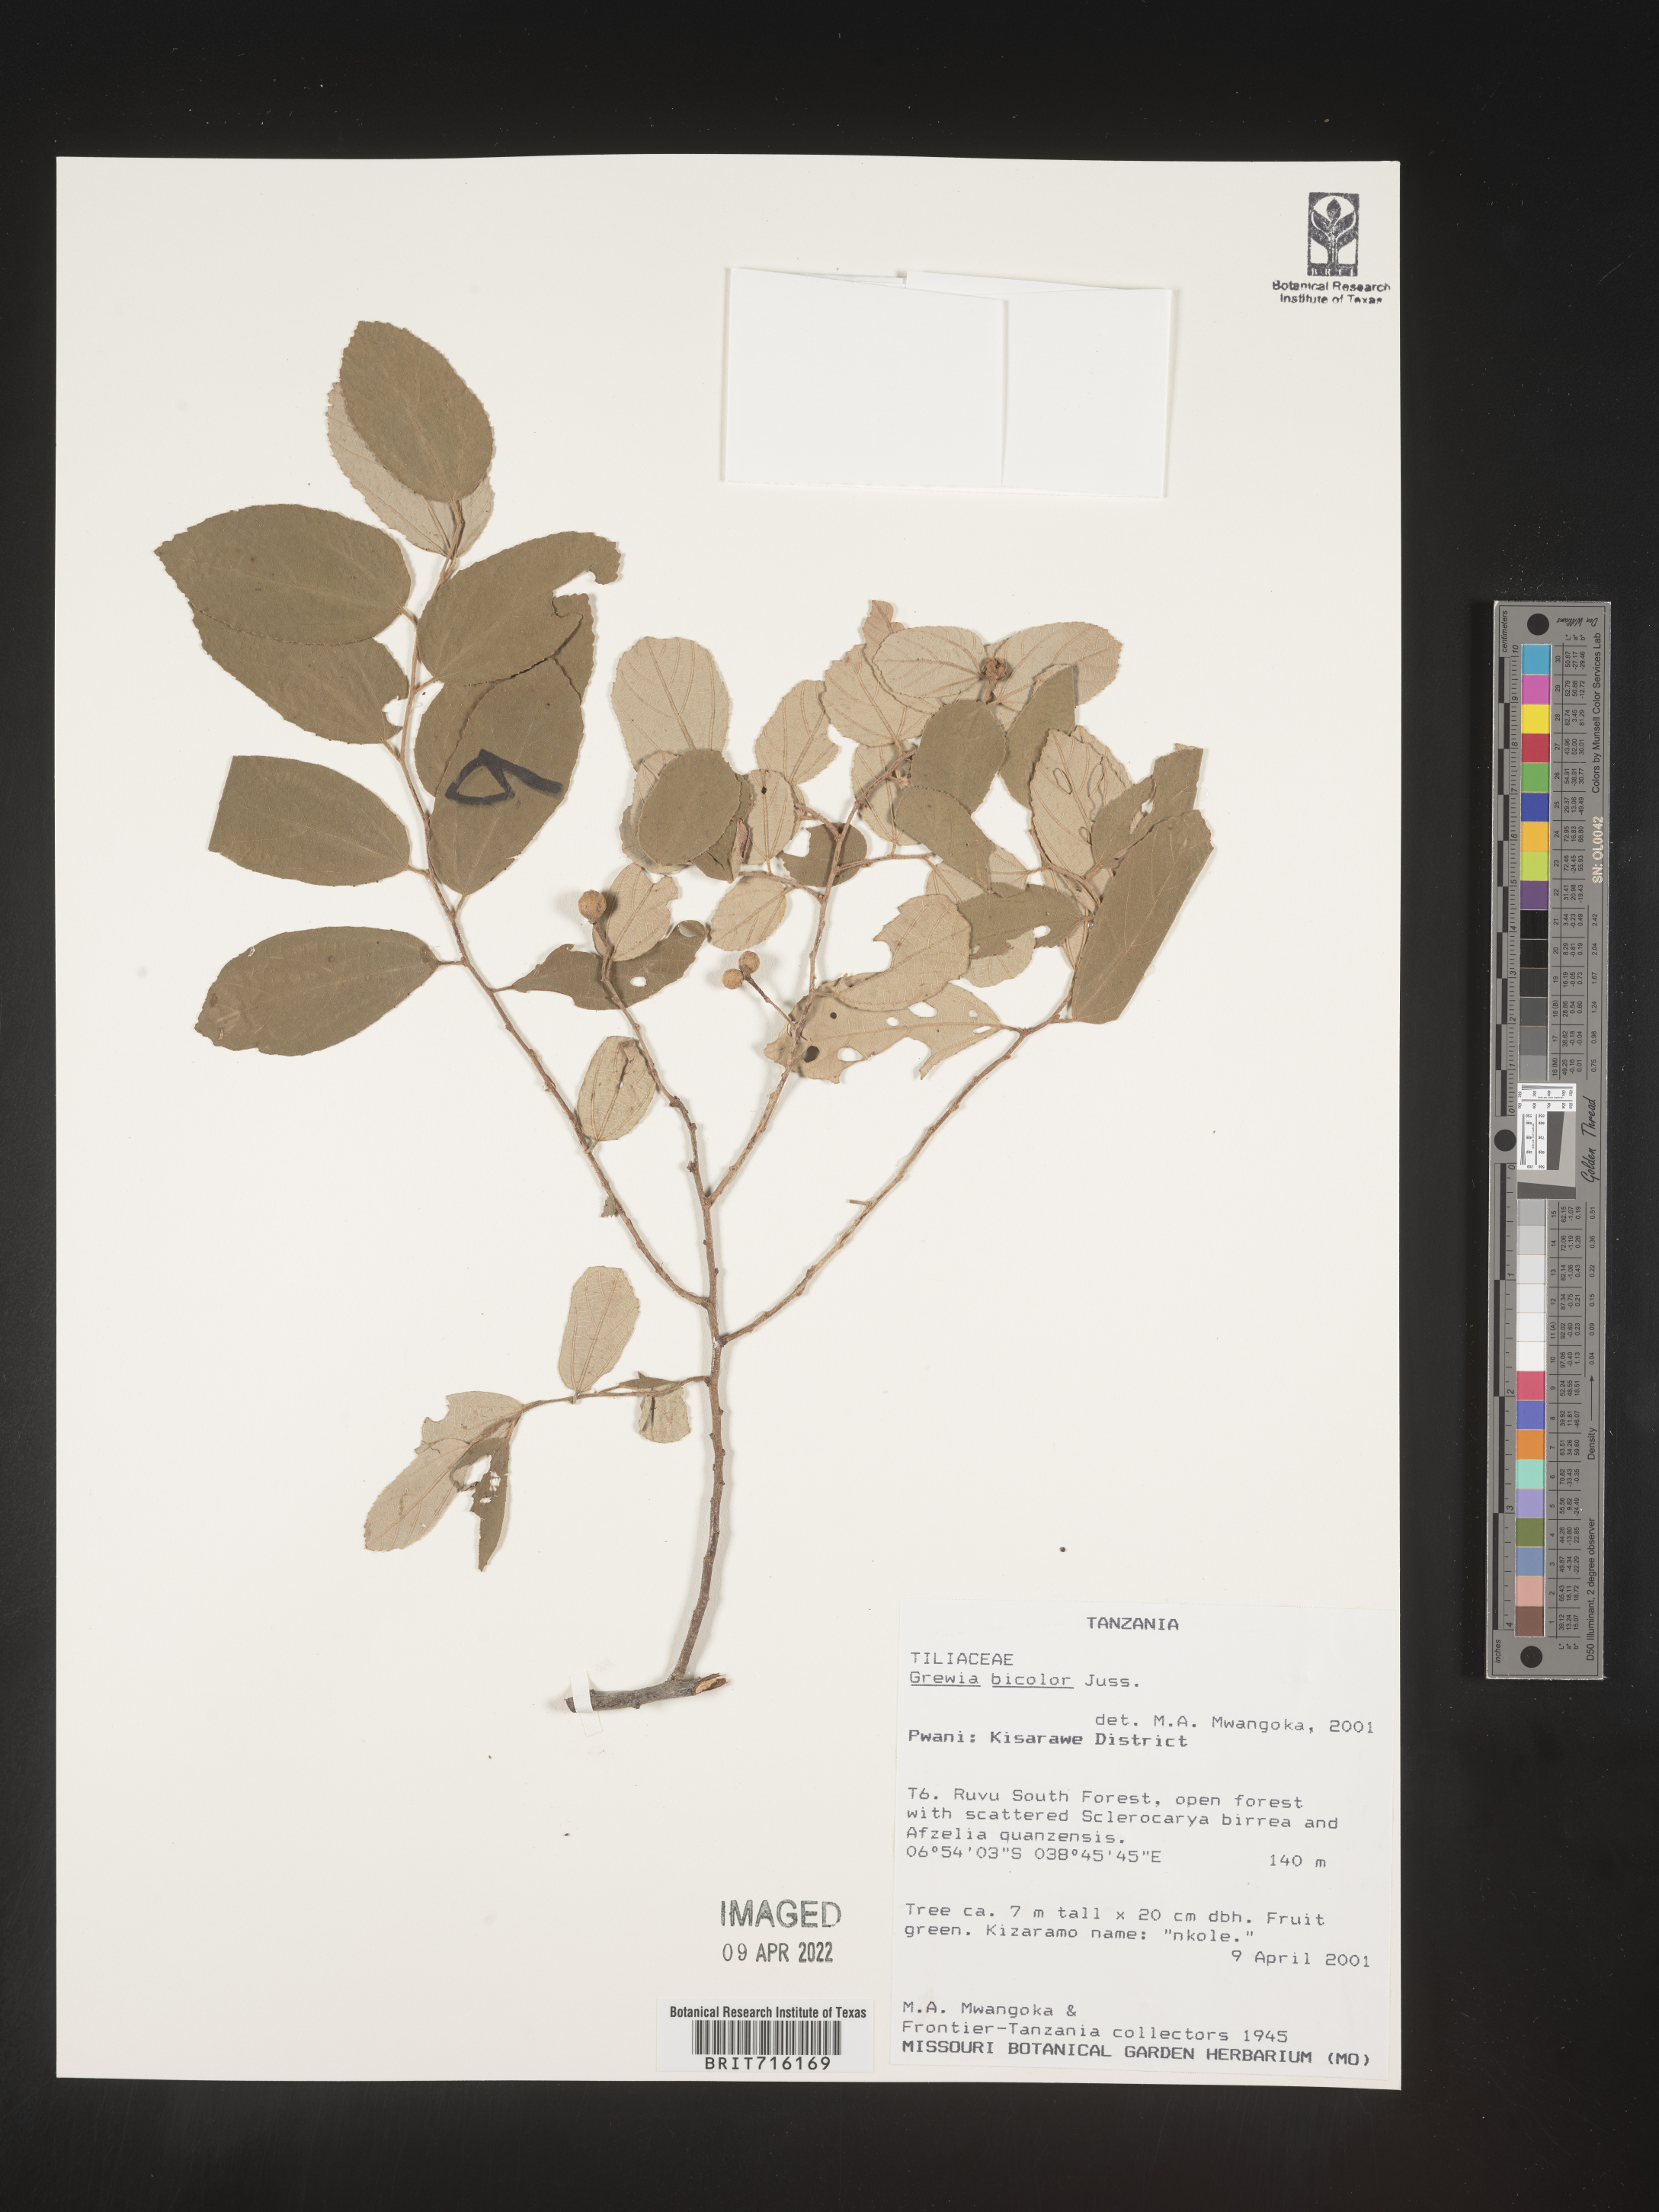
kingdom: Plantae
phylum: Tracheophyta
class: Magnoliopsida
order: Malvales
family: Malvaceae
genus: Grewia
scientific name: Grewia
